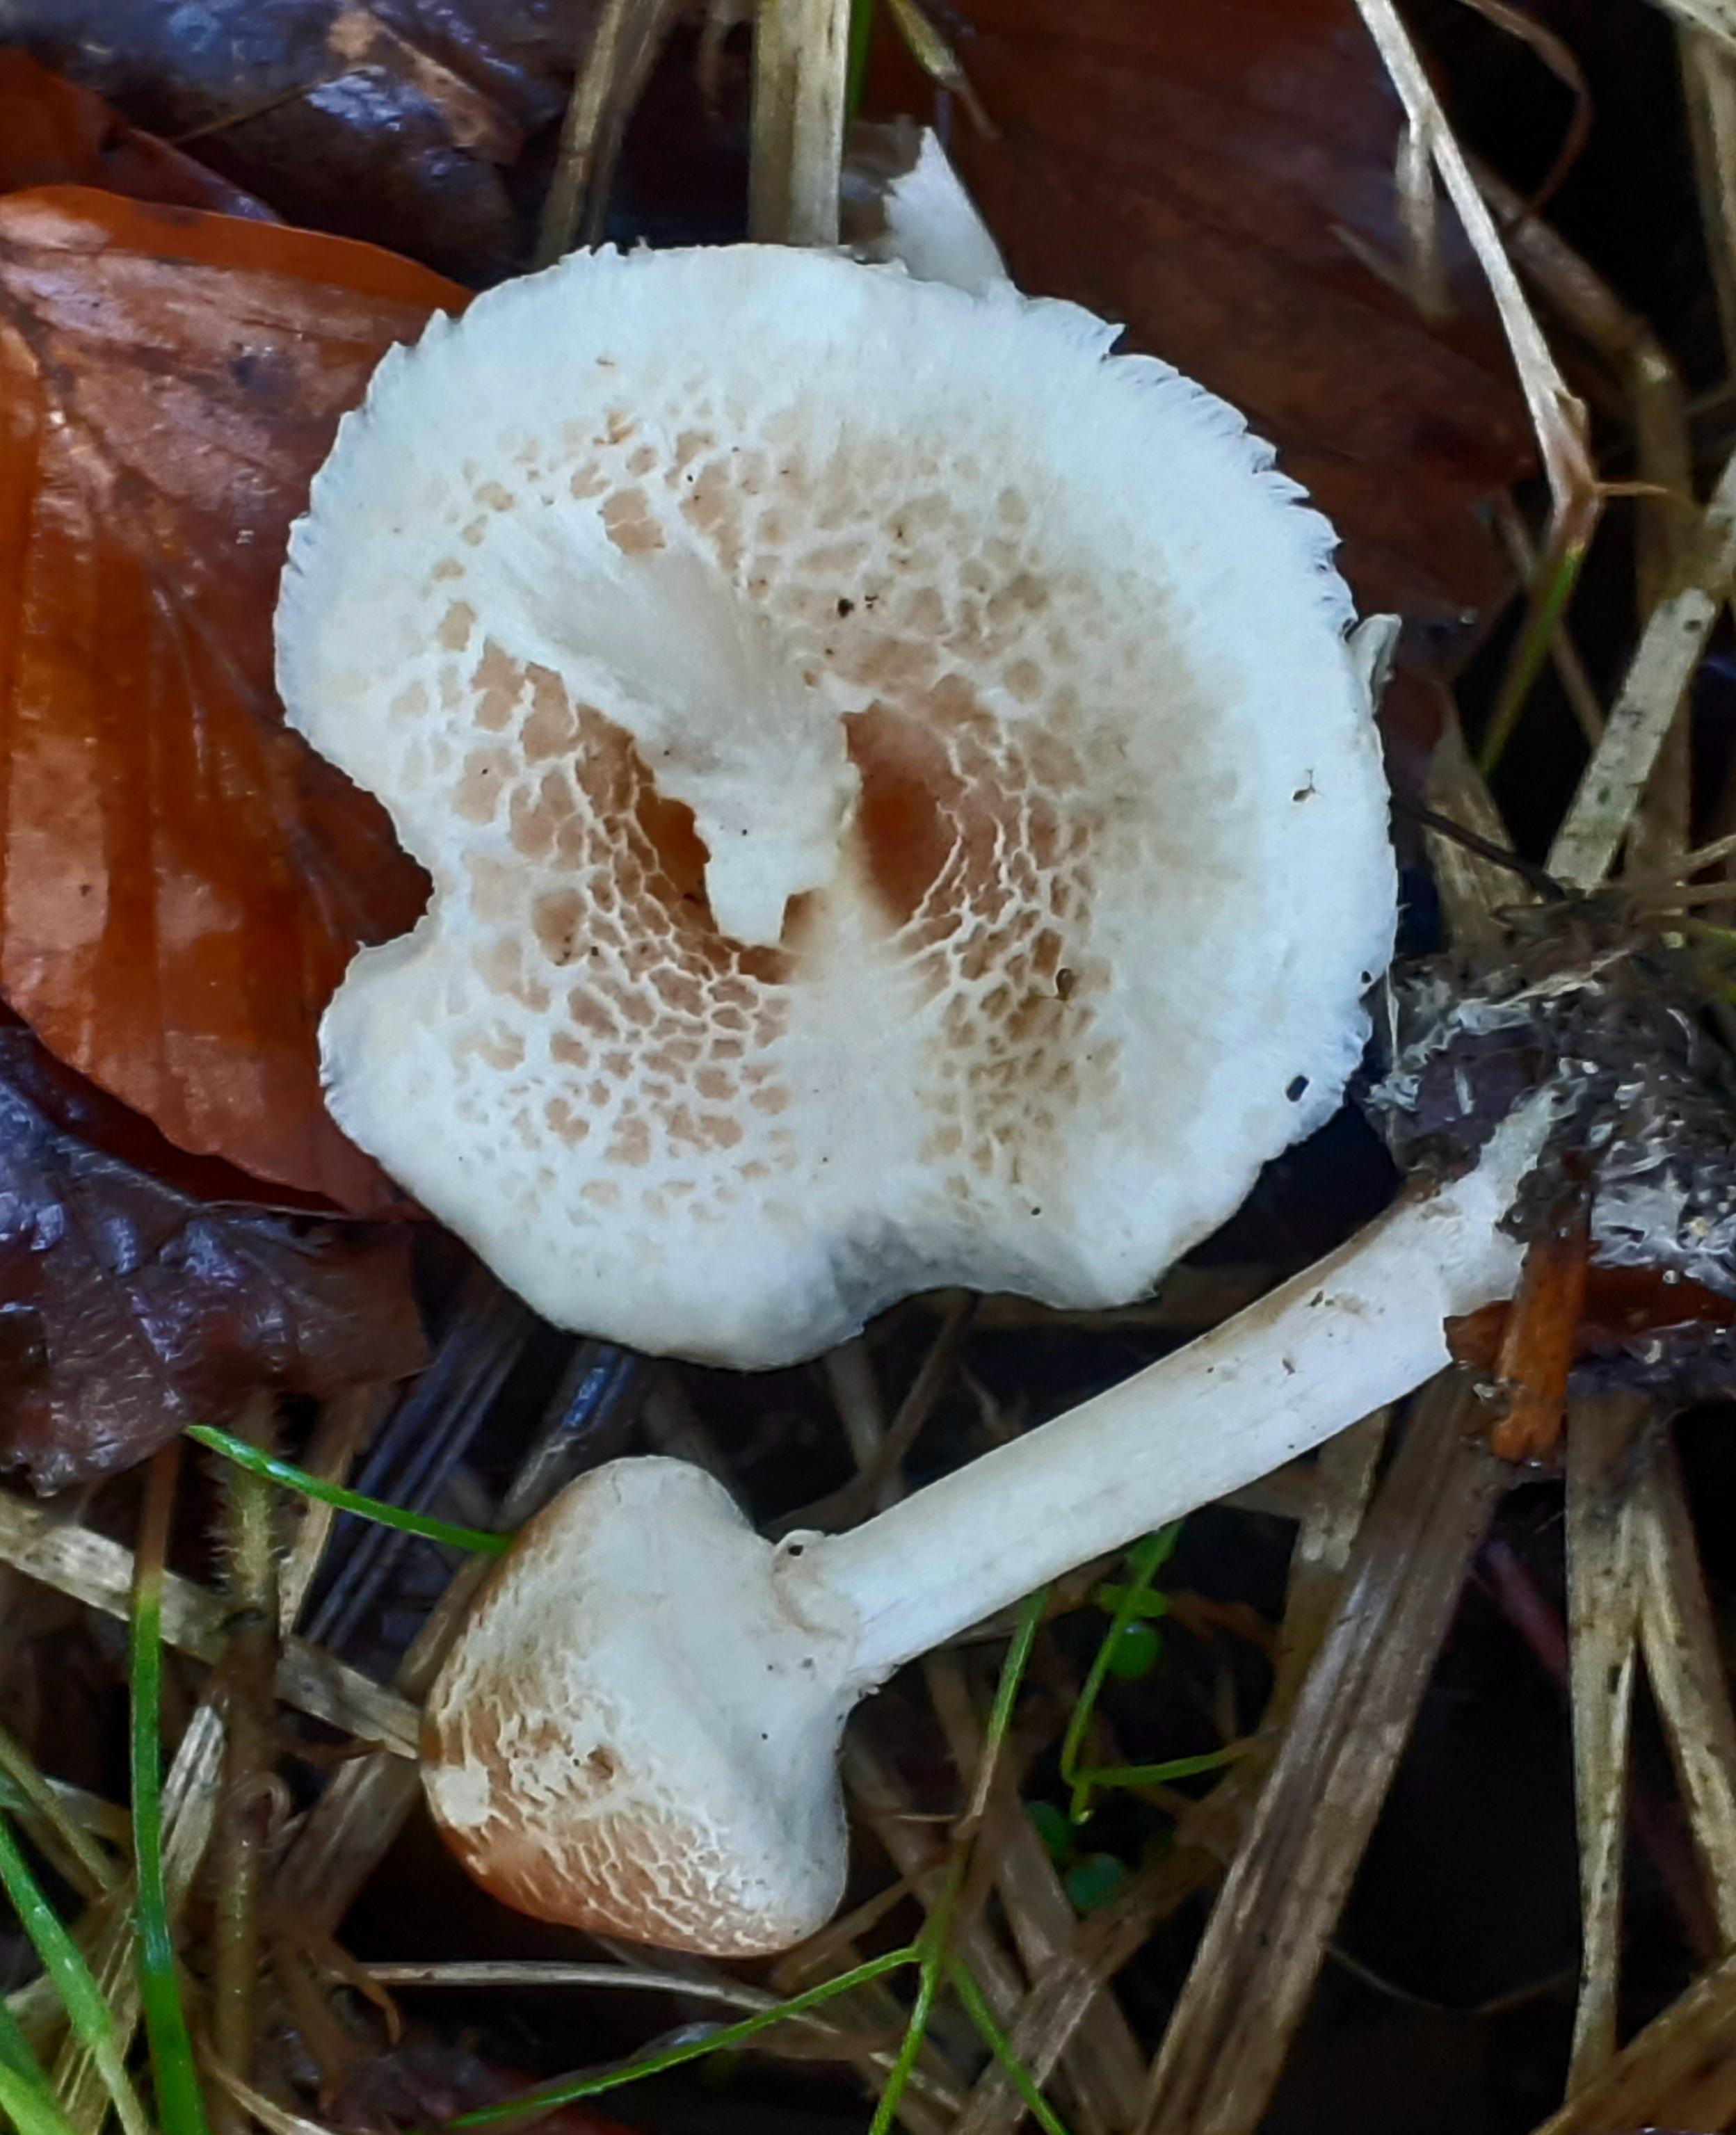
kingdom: Fungi
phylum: Basidiomycota
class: Agaricomycetes
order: Agaricales
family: Agaricaceae
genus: Lepiota
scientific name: Lepiota cristata
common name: stinkende parasolhat
